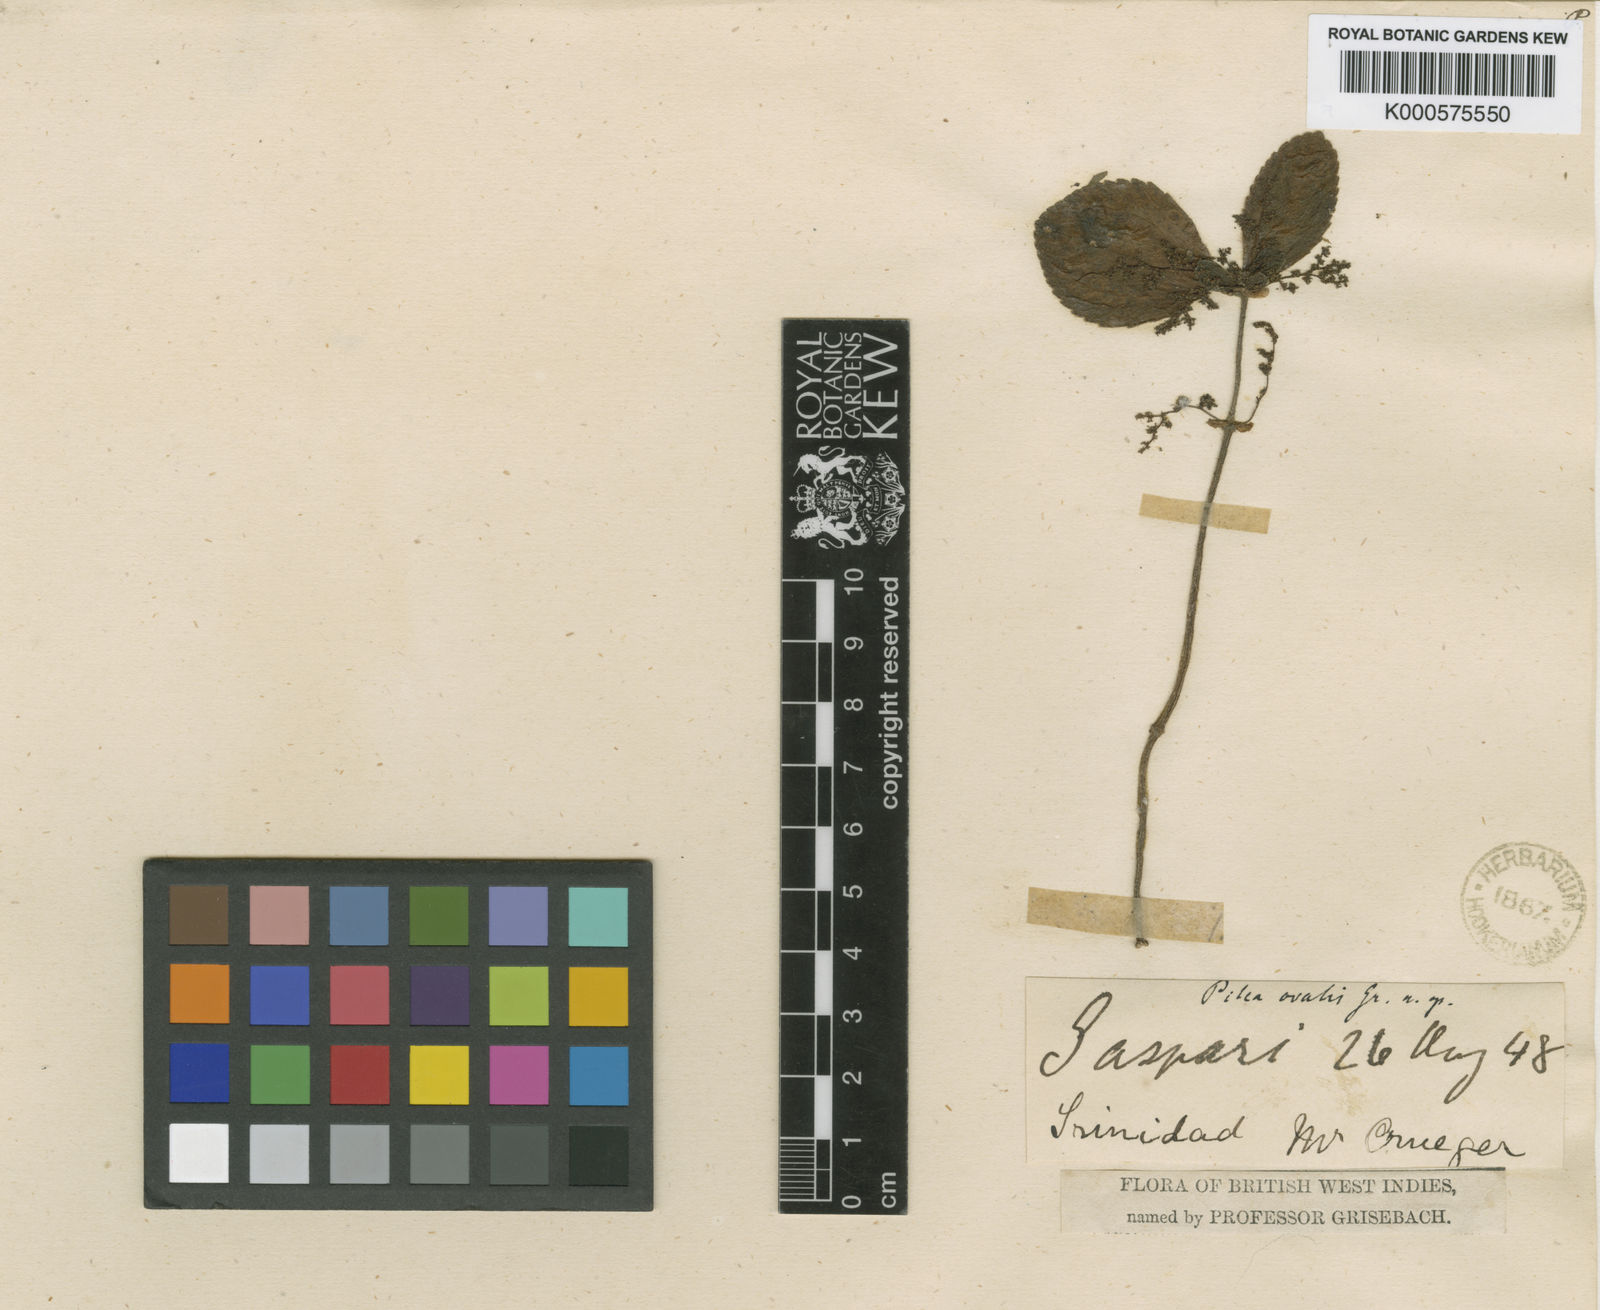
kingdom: Plantae
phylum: Tracheophyta
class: Magnoliopsida
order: Rosales
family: Urticaceae
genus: Pilea
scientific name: Pilea ovalis
